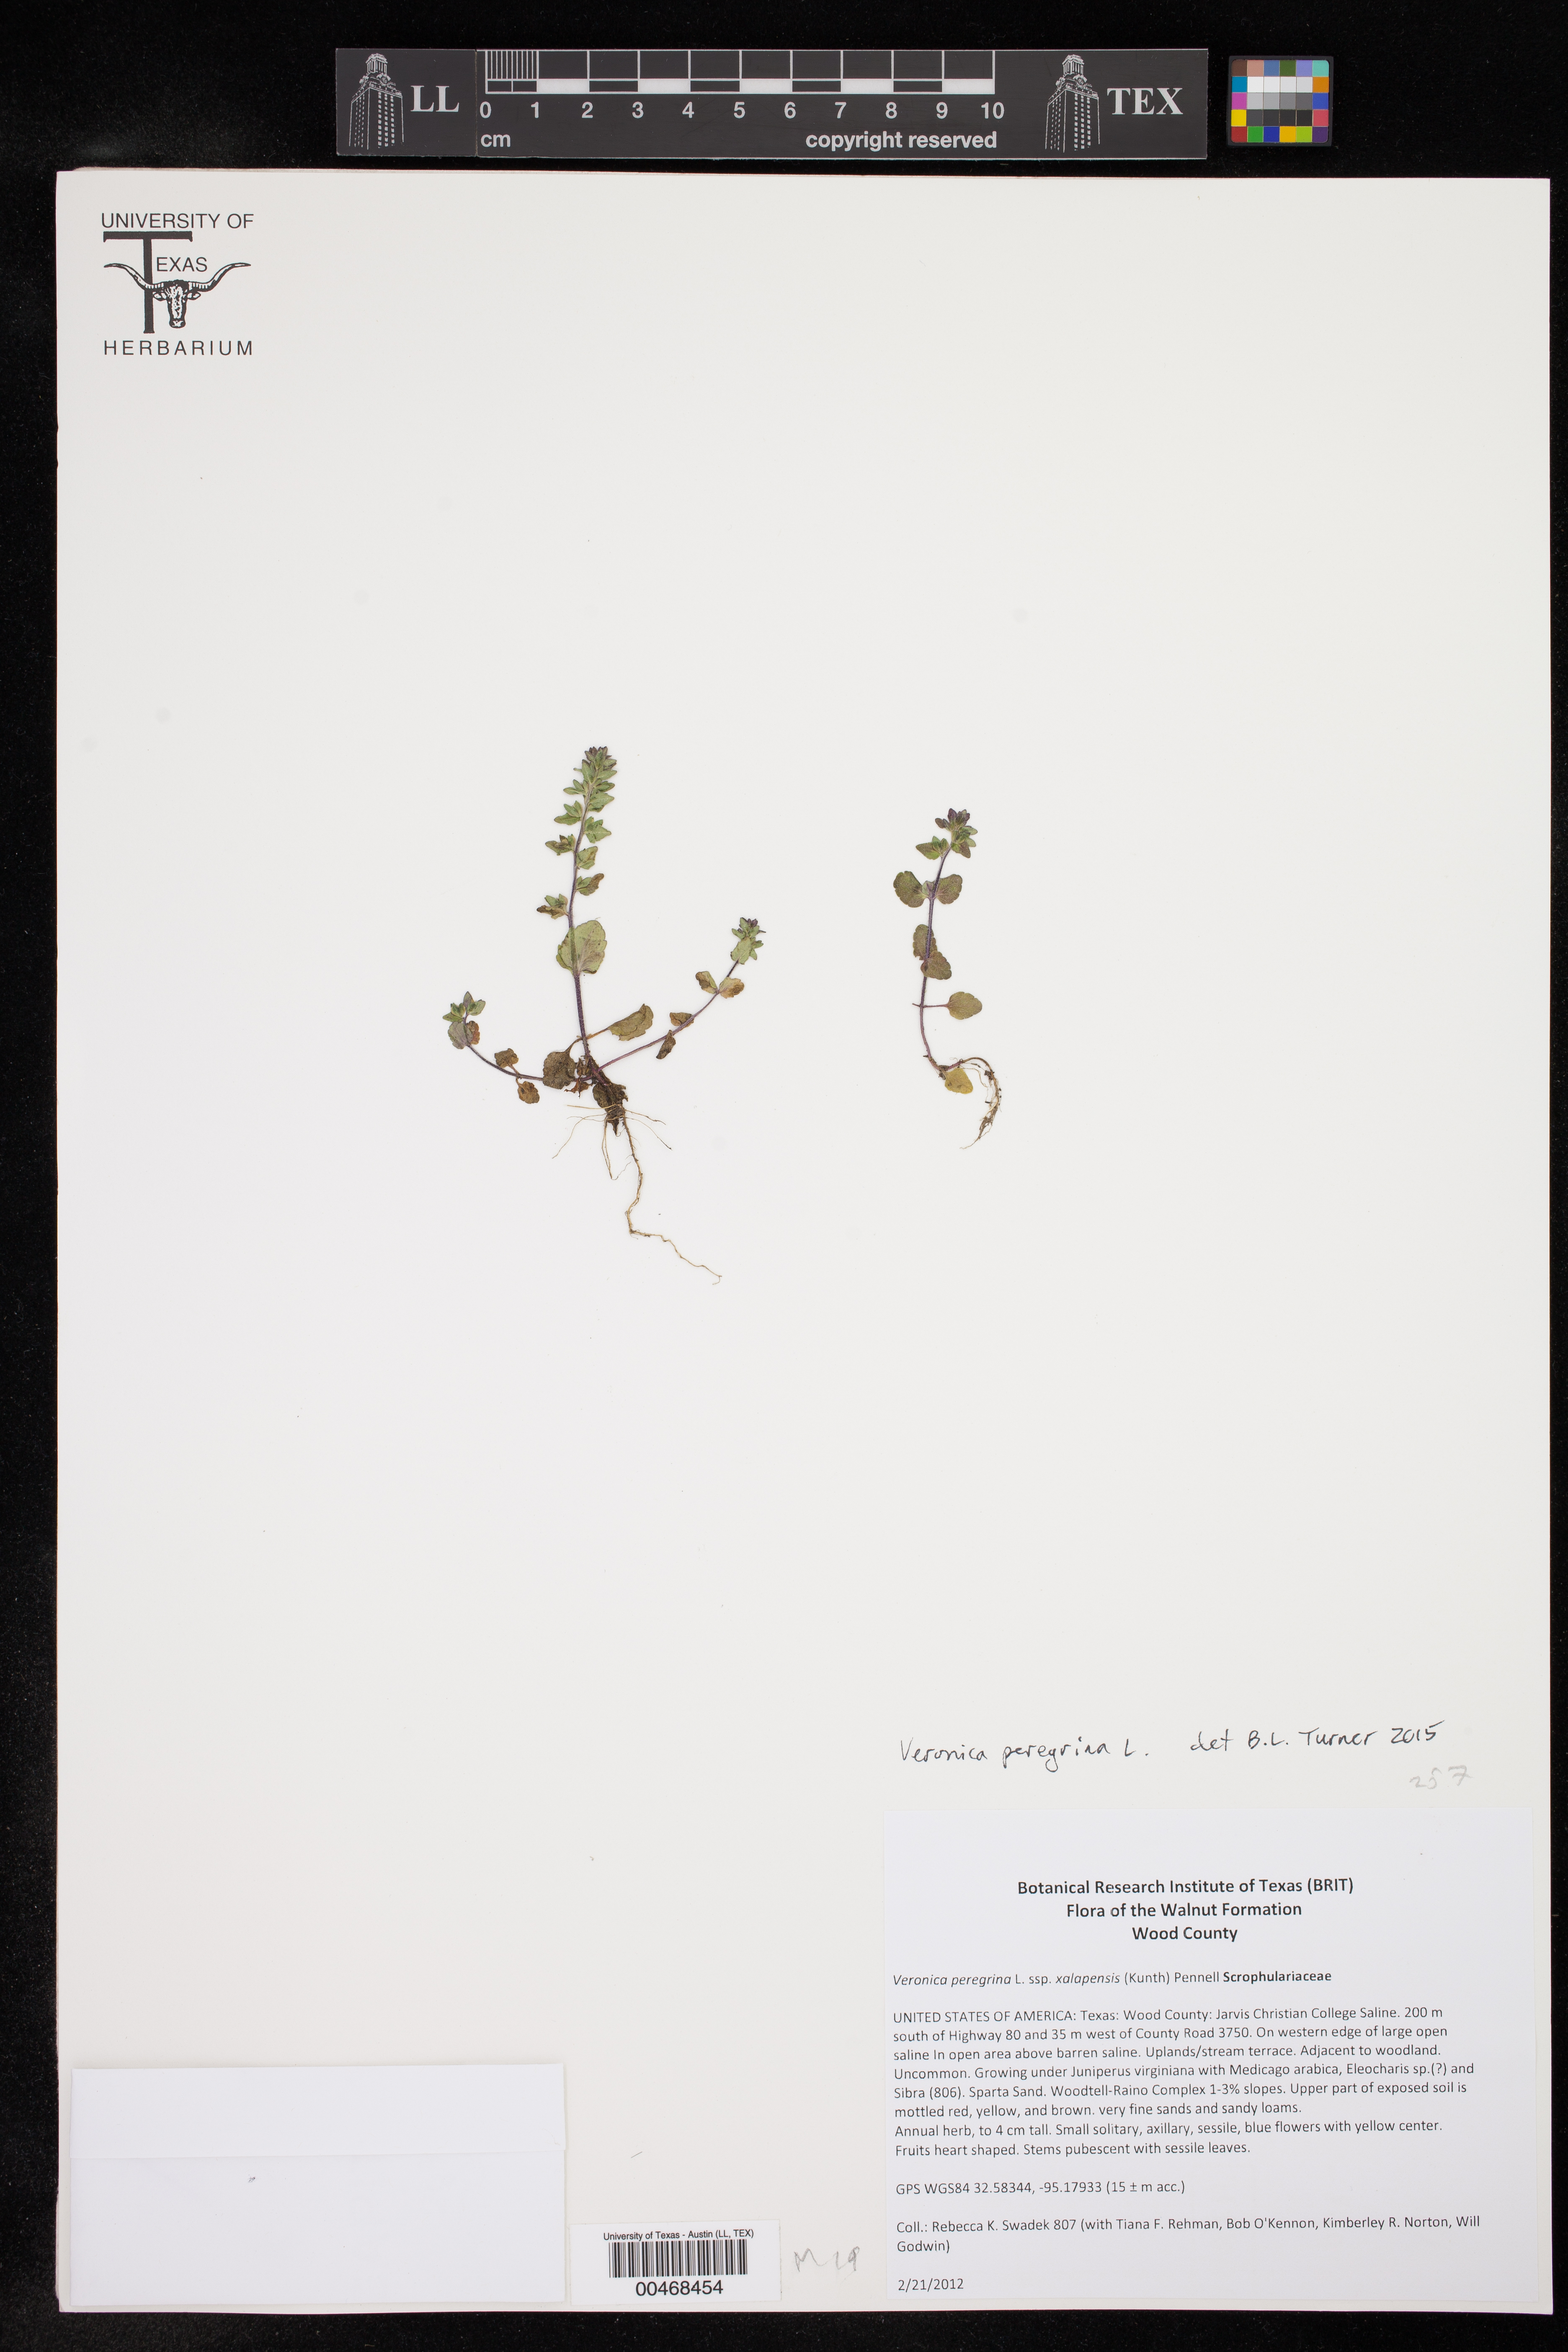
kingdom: Plantae
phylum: Tracheophyta
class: Magnoliopsida
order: Lamiales
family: Plantaginaceae
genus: Veronica
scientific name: Veronica peregrina
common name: Neckweed
